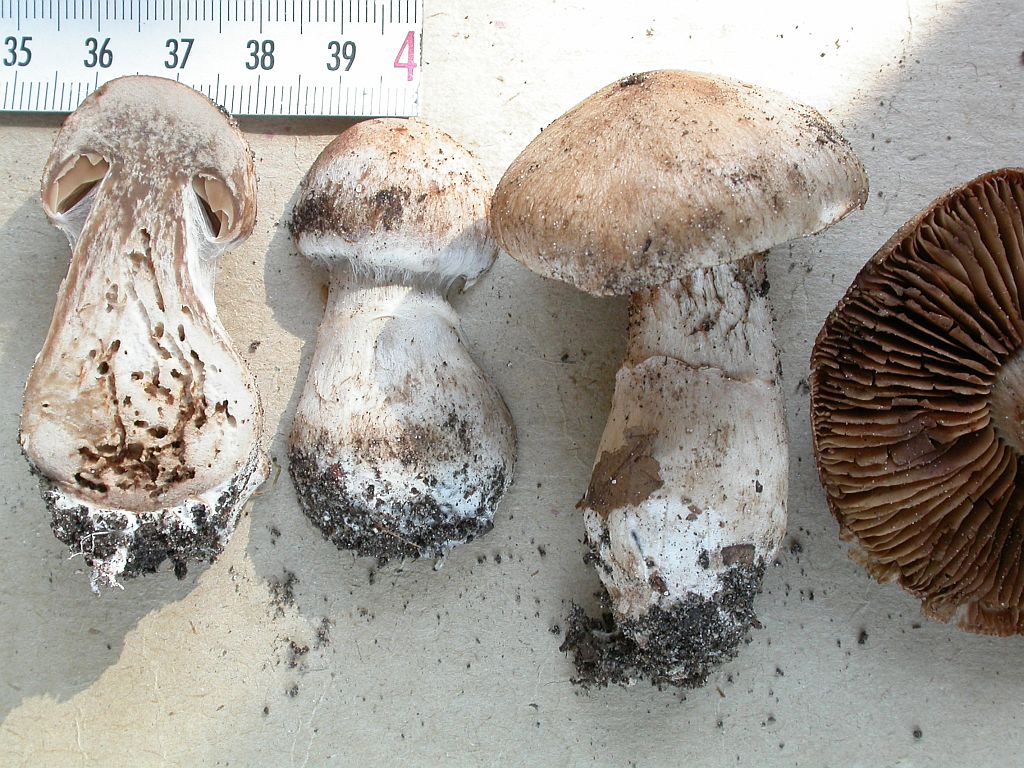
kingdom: Fungi
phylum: Basidiomycota
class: Agaricomycetes
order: Agaricales
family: Cortinariaceae
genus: Cortinarius
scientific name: Cortinarius sociatus
